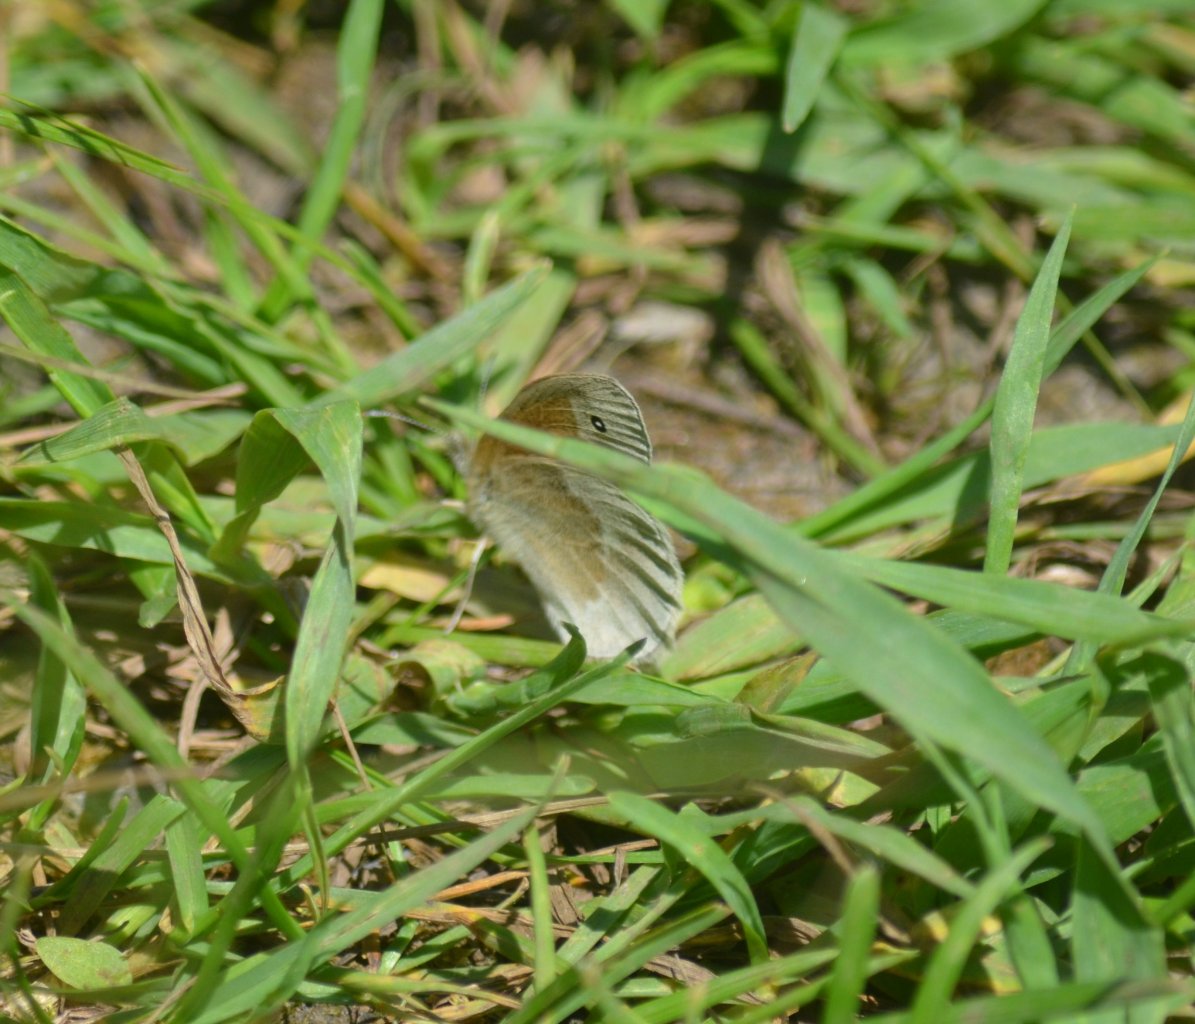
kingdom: Animalia
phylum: Arthropoda
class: Insecta
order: Lepidoptera
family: Nymphalidae
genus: Coenonympha
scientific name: Coenonympha tullia
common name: Large Heath
